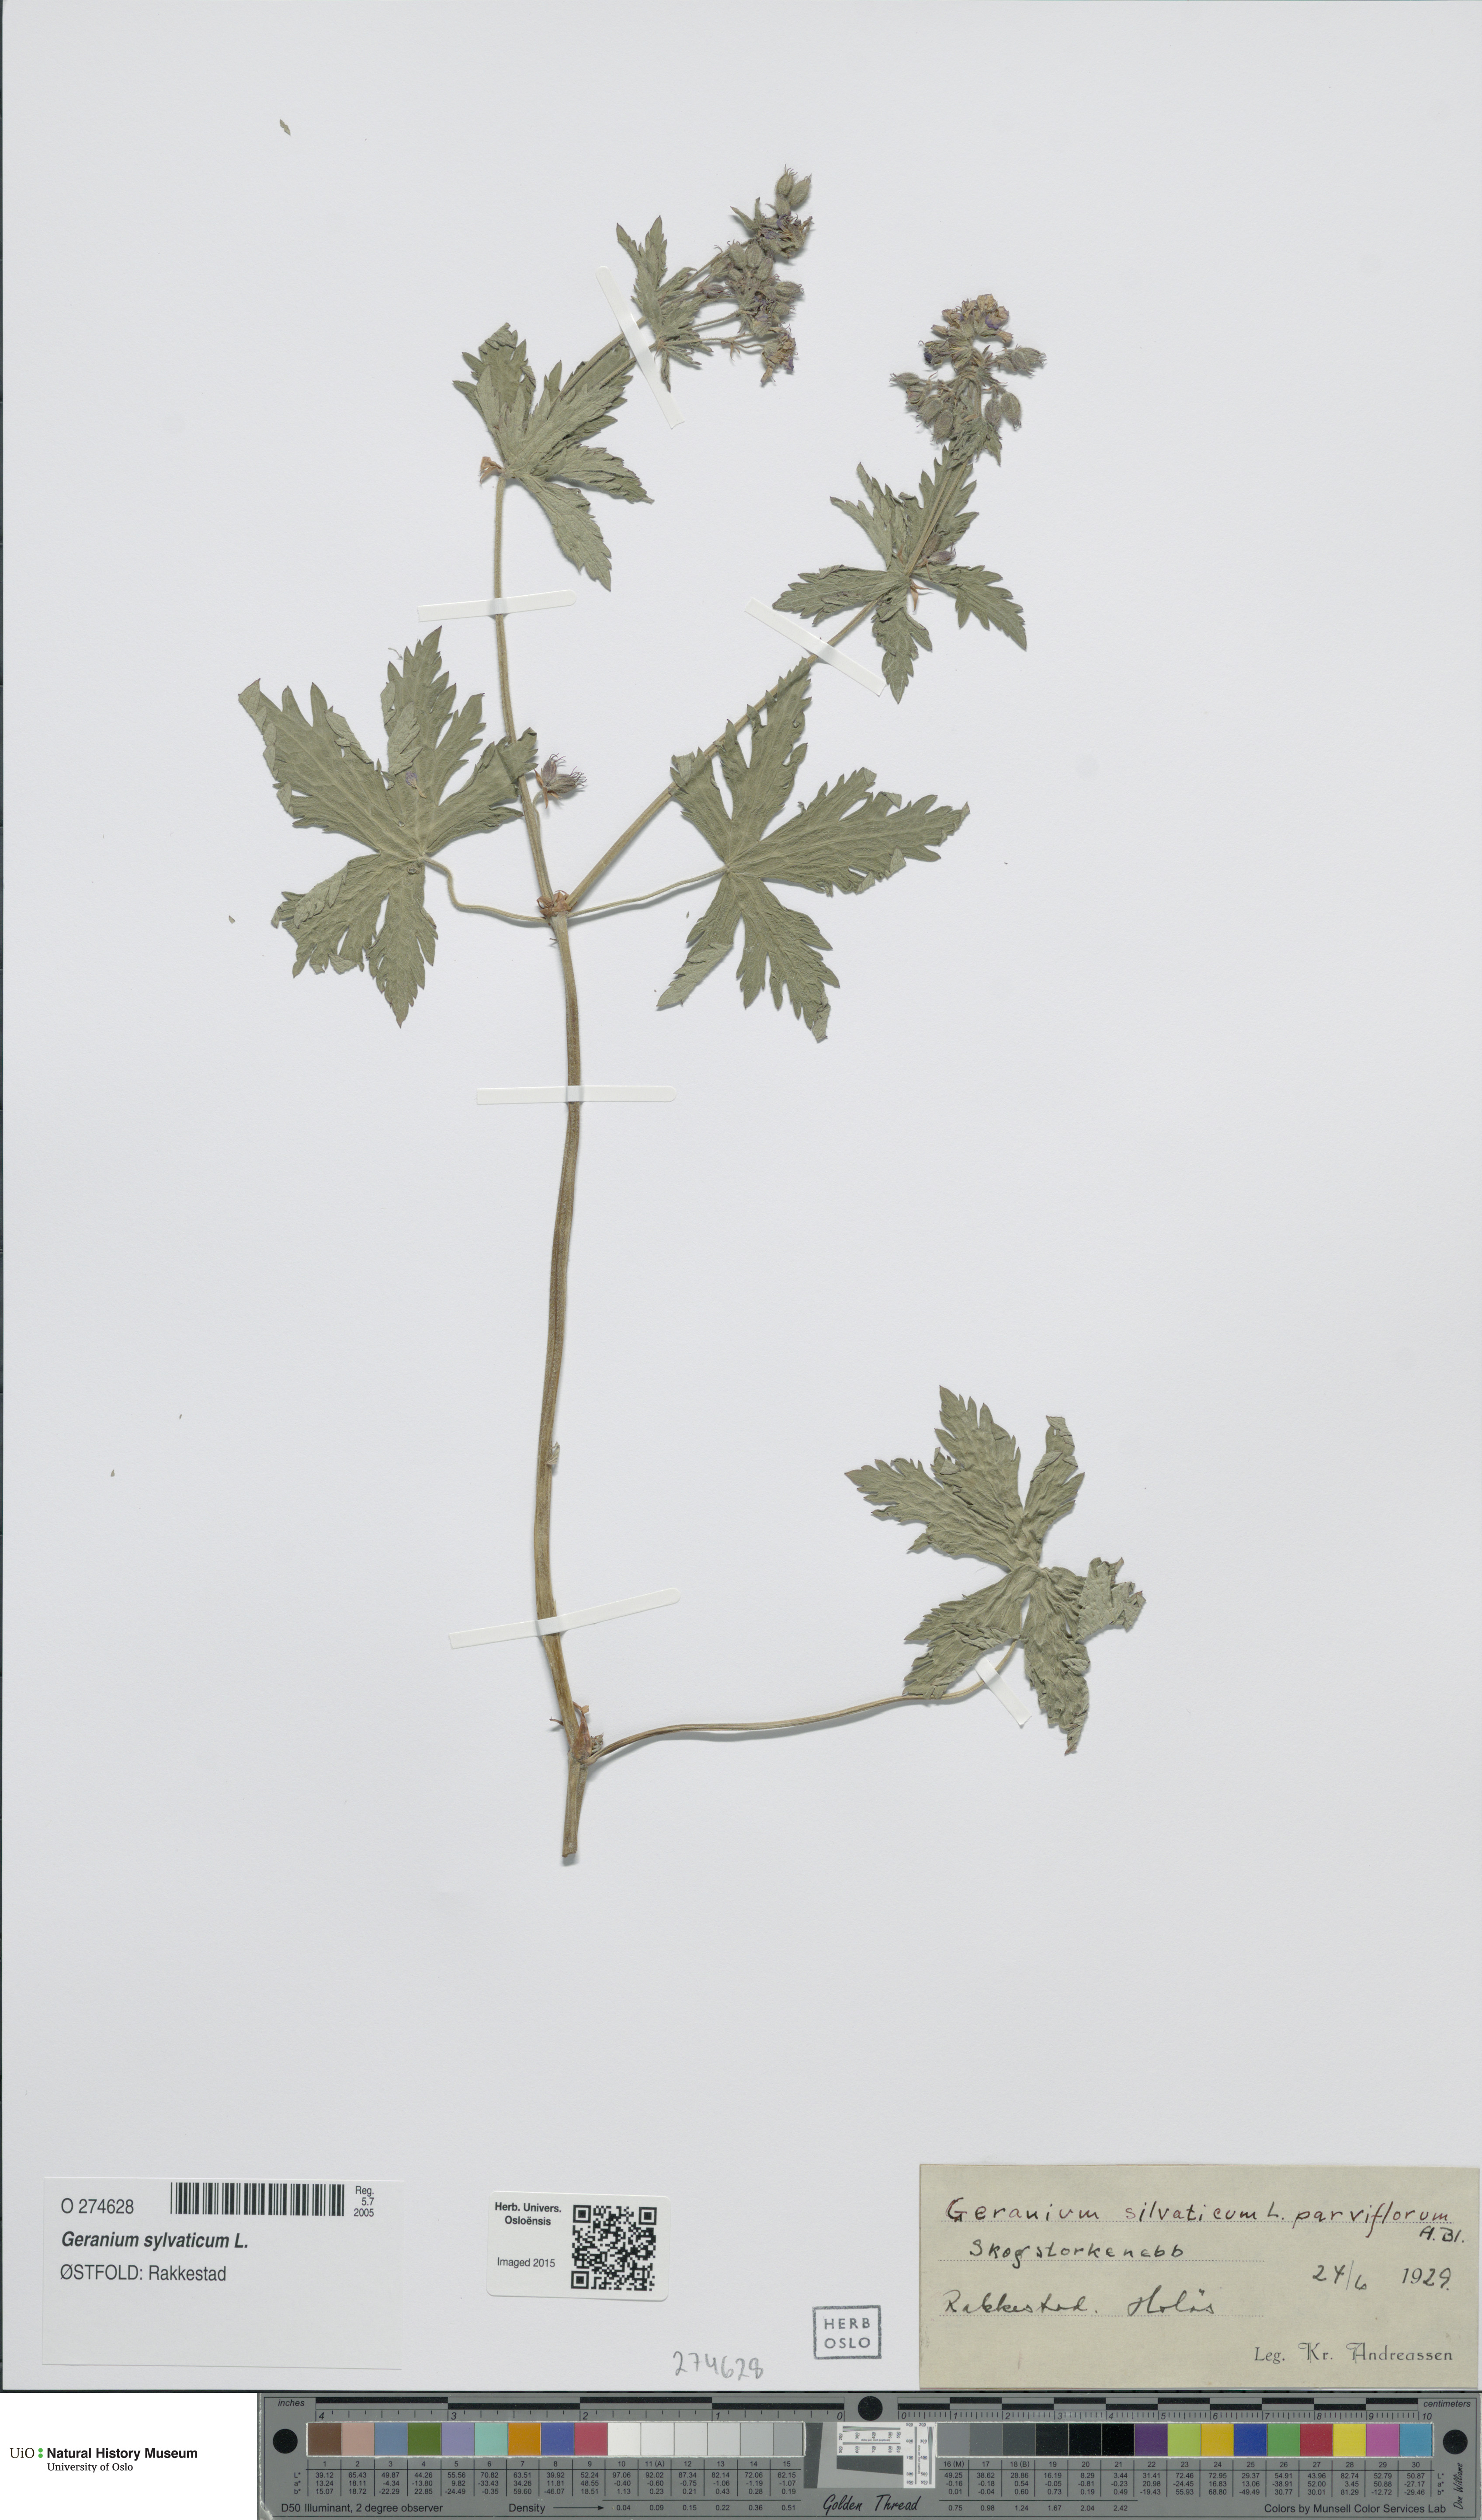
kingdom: Plantae
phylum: Tracheophyta
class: Magnoliopsida
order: Geraniales
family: Geraniaceae
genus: Geranium
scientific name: Geranium sylvaticum
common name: Wood crane's-bill
